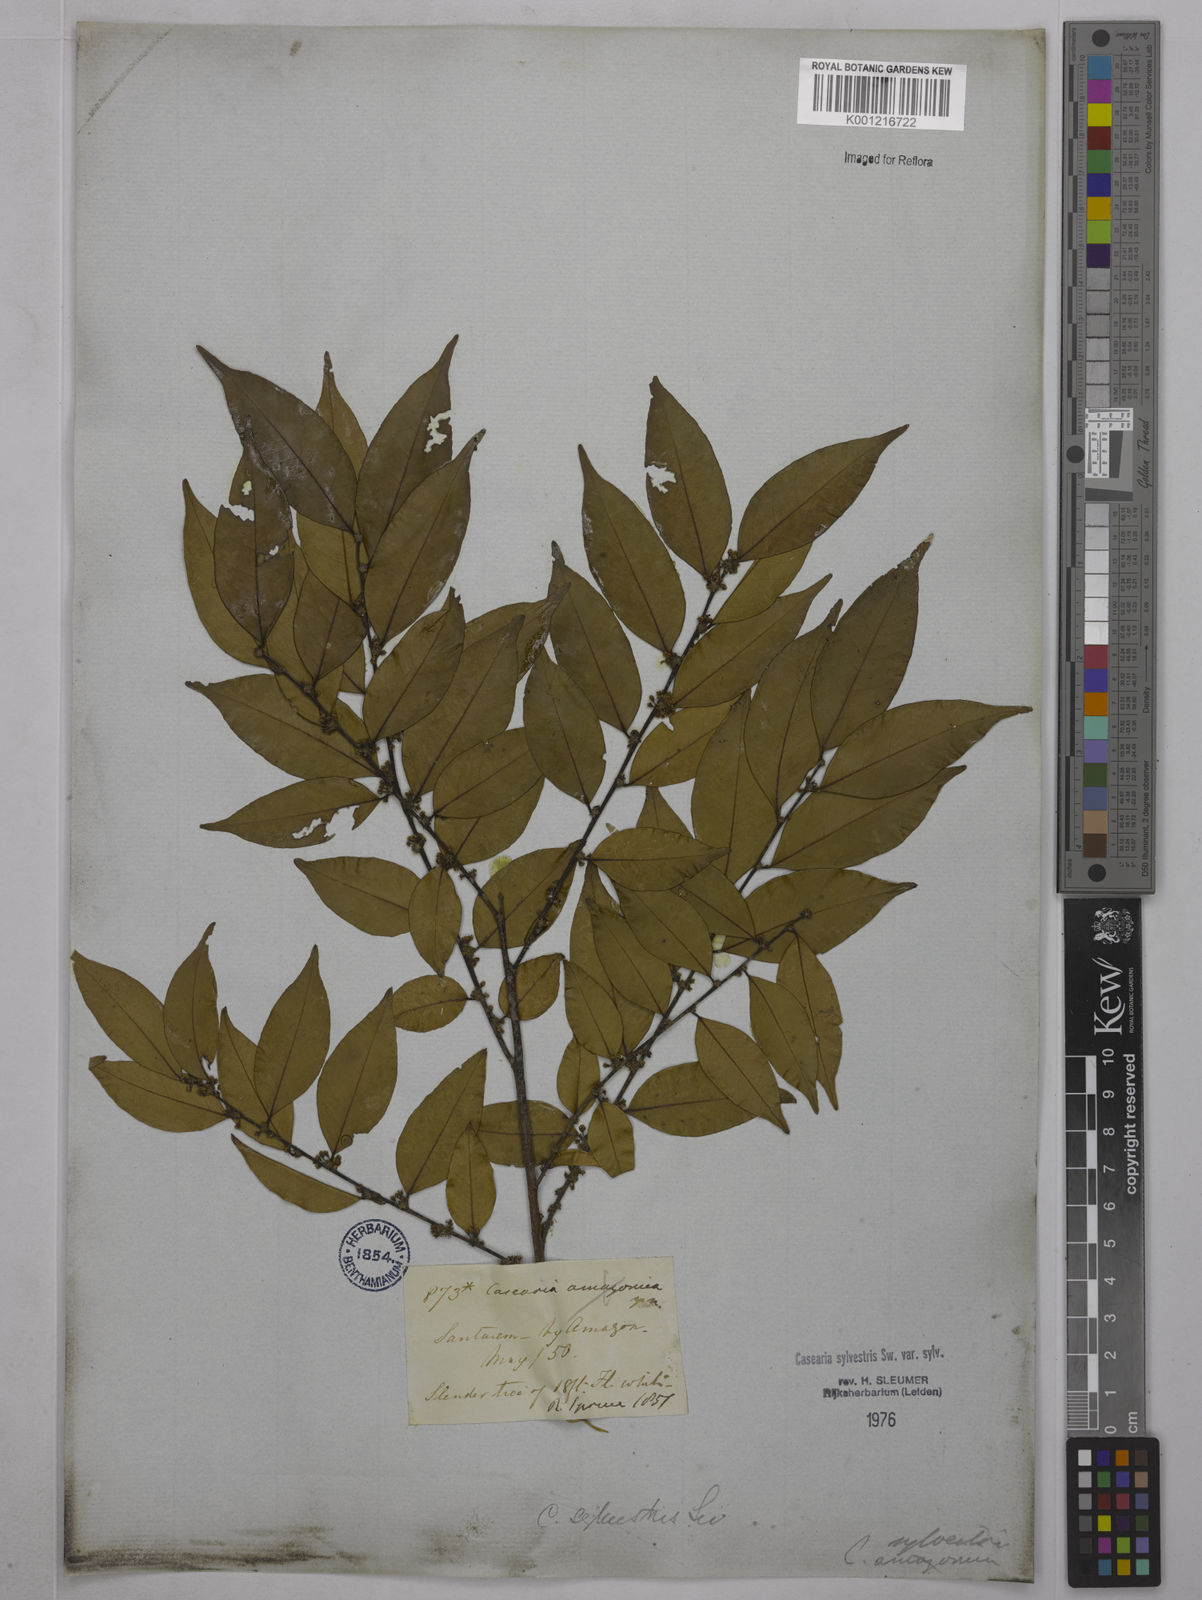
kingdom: Plantae
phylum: Tracheophyta
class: Magnoliopsida
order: Malpighiales
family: Salicaceae
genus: Casearia
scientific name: Casearia sylvestris
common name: Wild sage
